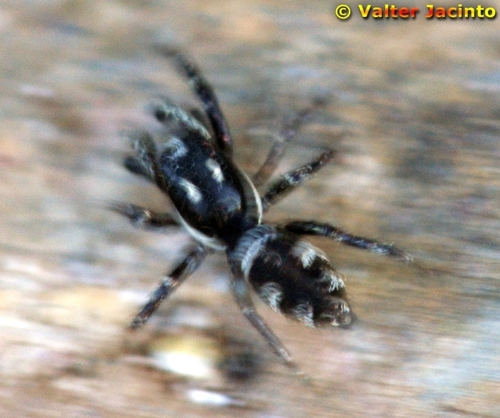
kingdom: Animalia
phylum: Arthropoda
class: Arachnida
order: Araneae
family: Salticidae
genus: Salticus
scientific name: Salticus scenicus
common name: Zebra jumper
